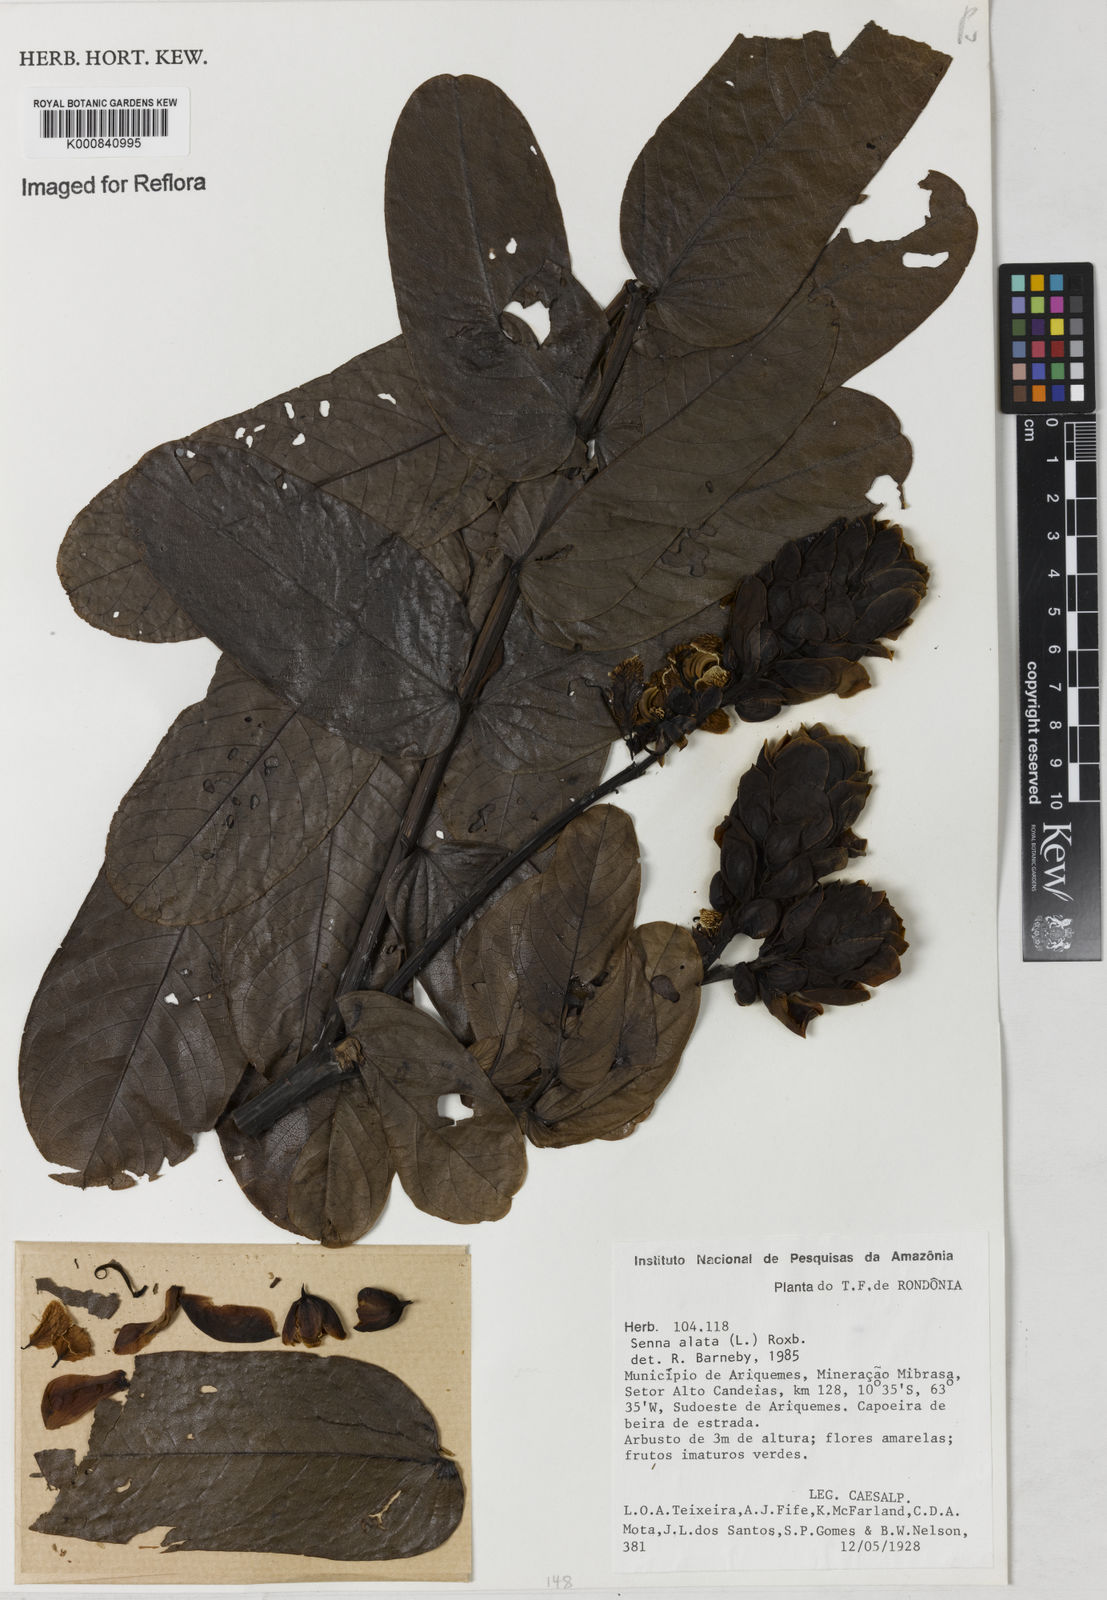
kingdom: Plantae
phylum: Tracheophyta
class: Magnoliopsida
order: Fabales
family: Fabaceae
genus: Senna
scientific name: Senna alata
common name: Emperor's candlesticks
